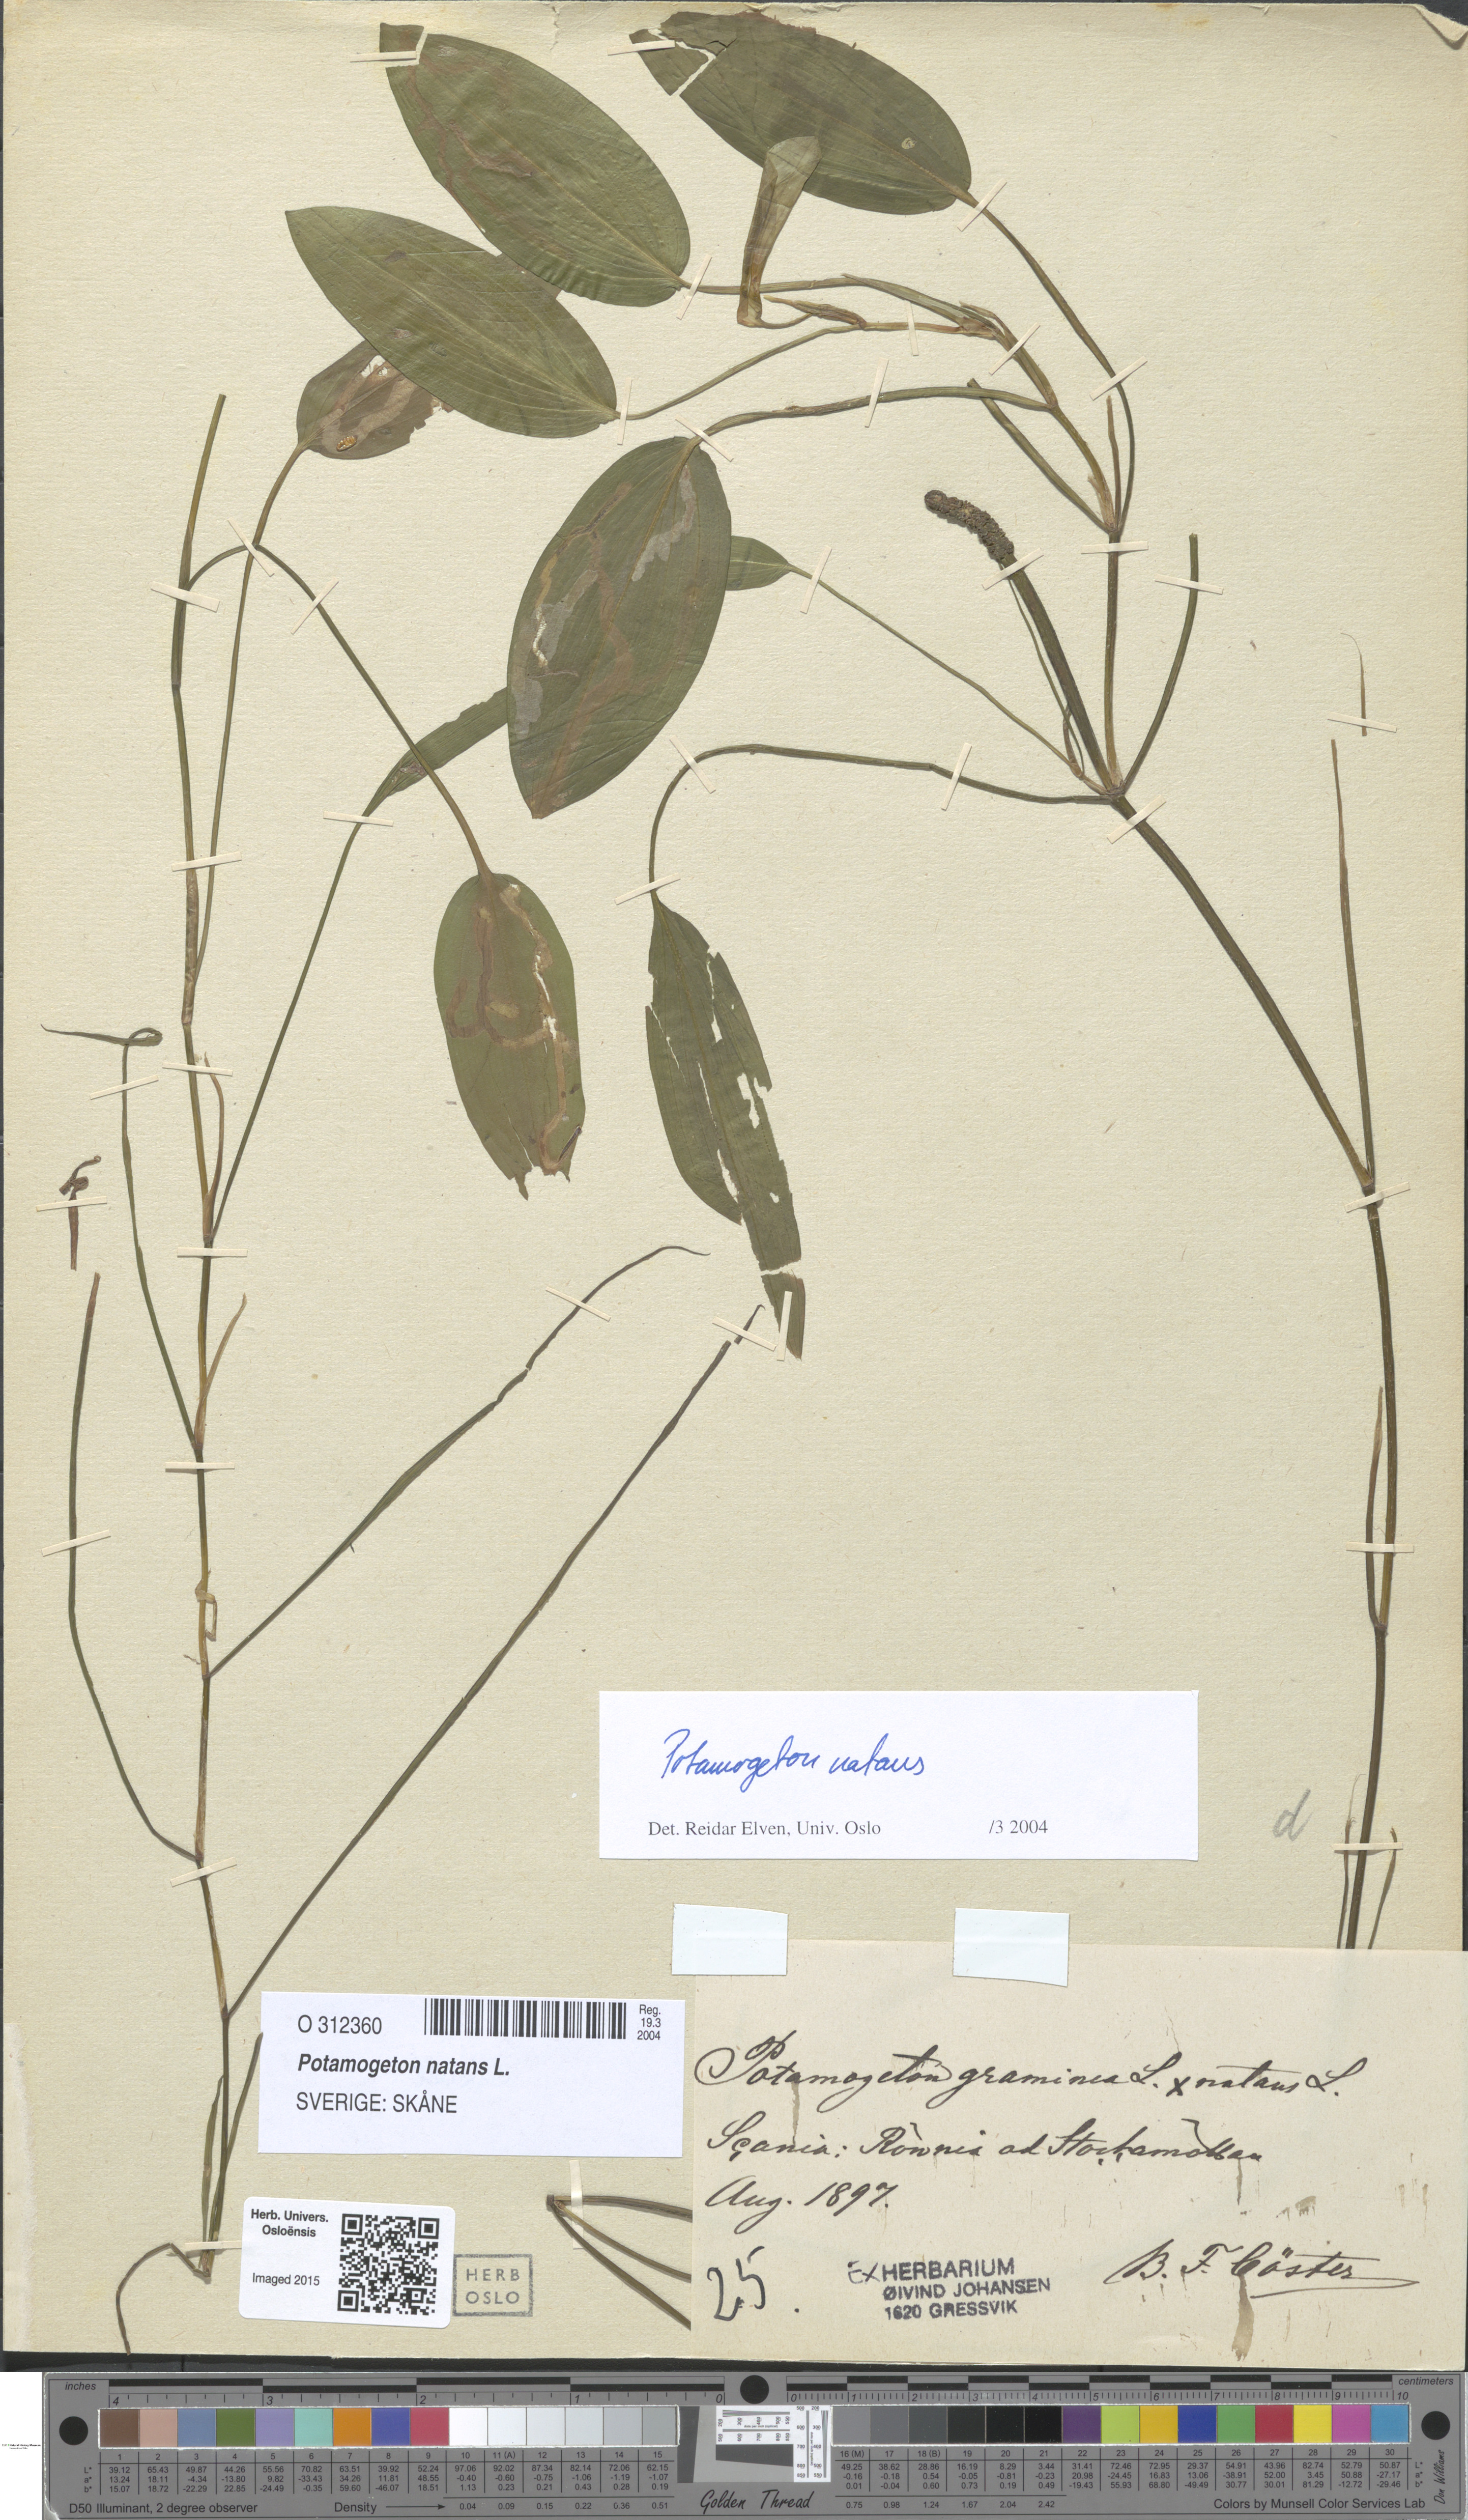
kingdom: Plantae
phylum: Tracheophyta
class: Liliopsida
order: Alismatales
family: Potamogetonaceae
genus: Potamogeton
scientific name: Potamogeton natans
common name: Broad-leaved pondweed
